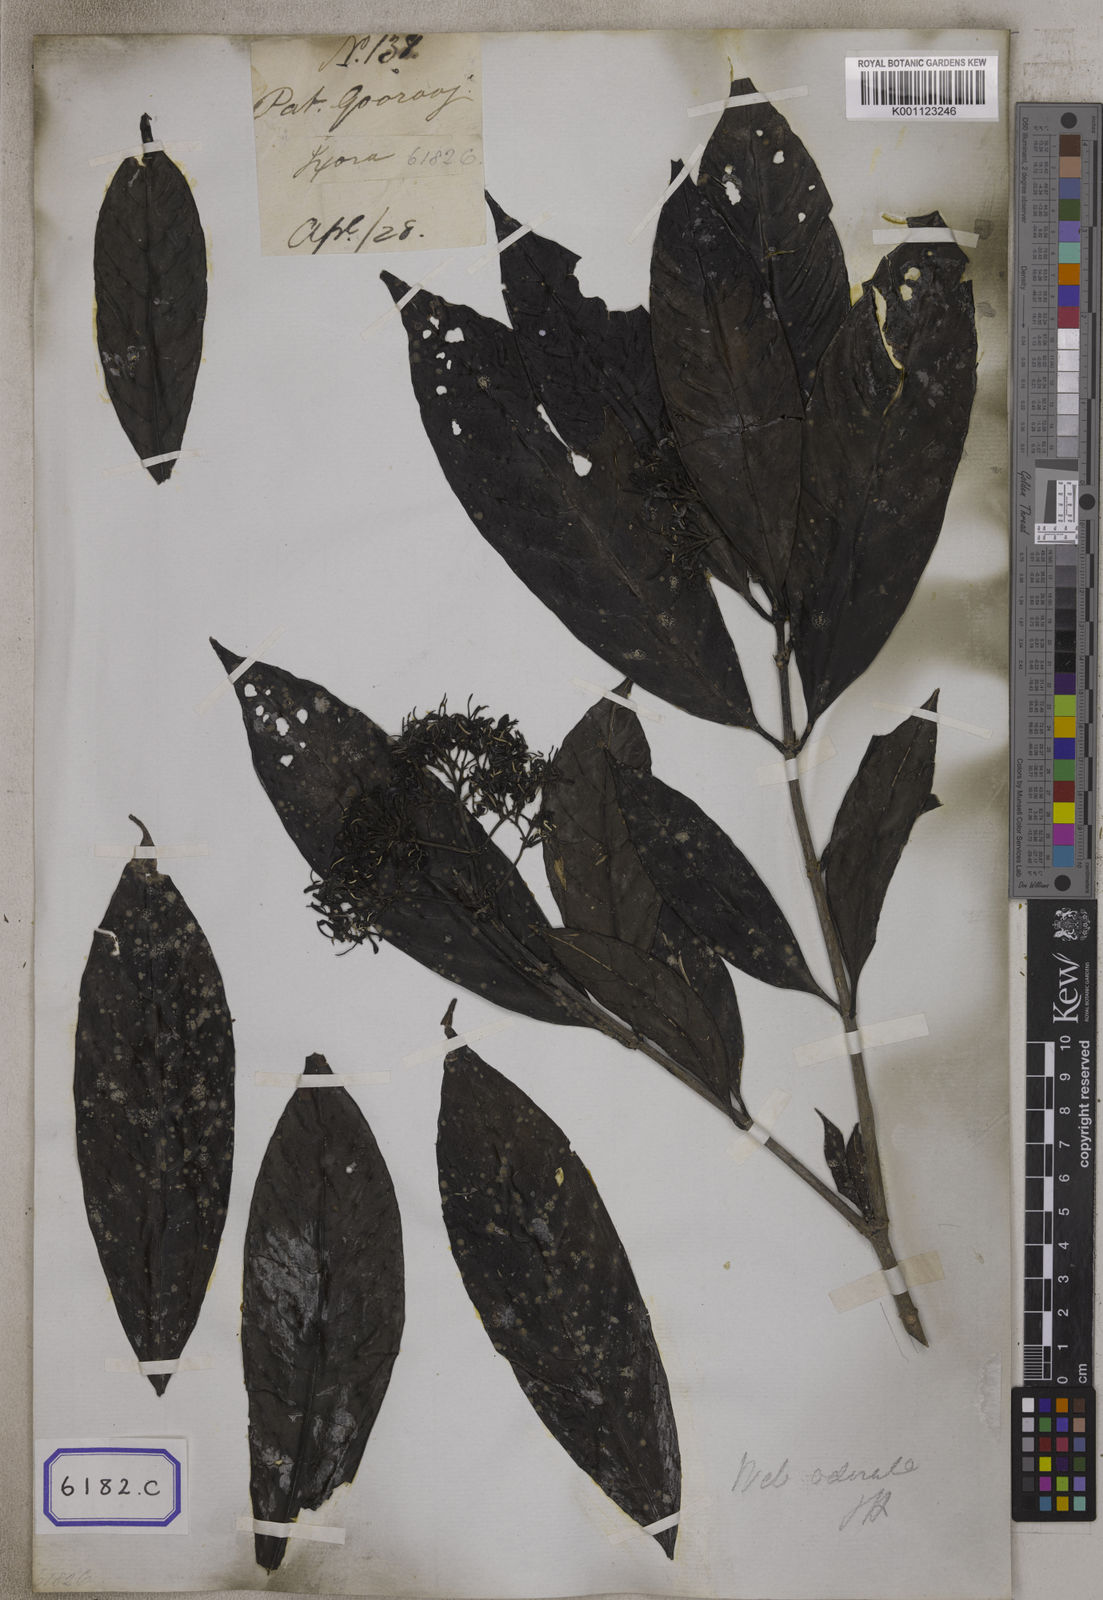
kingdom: Plantae
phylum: Tracheophyta
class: Magnoliopsida
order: Gentianales
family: Rubiaceae
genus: Pavetta
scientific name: Pavetta
